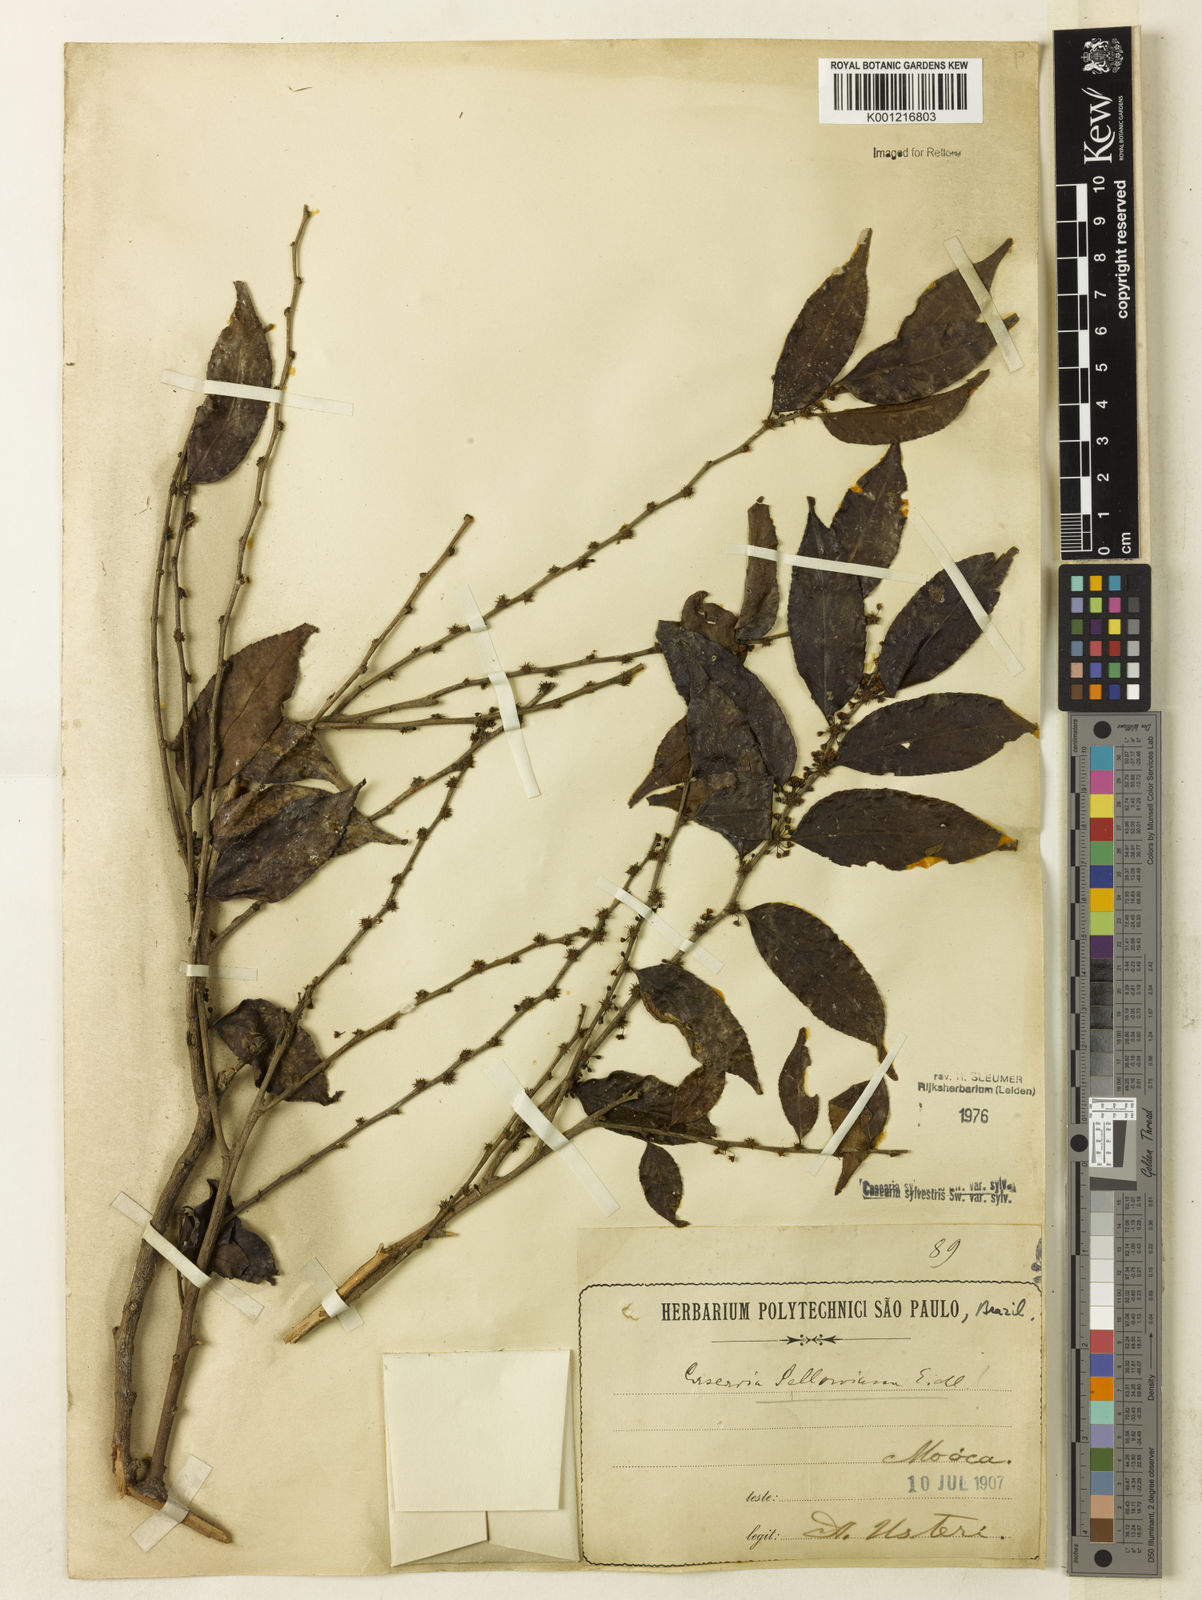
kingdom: Plantae
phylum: Tracheophyta
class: Magnoliopsida
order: Malpighiales
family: Salicaceae
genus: Casearia
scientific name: Casearia sylvestris
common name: Wild sage
